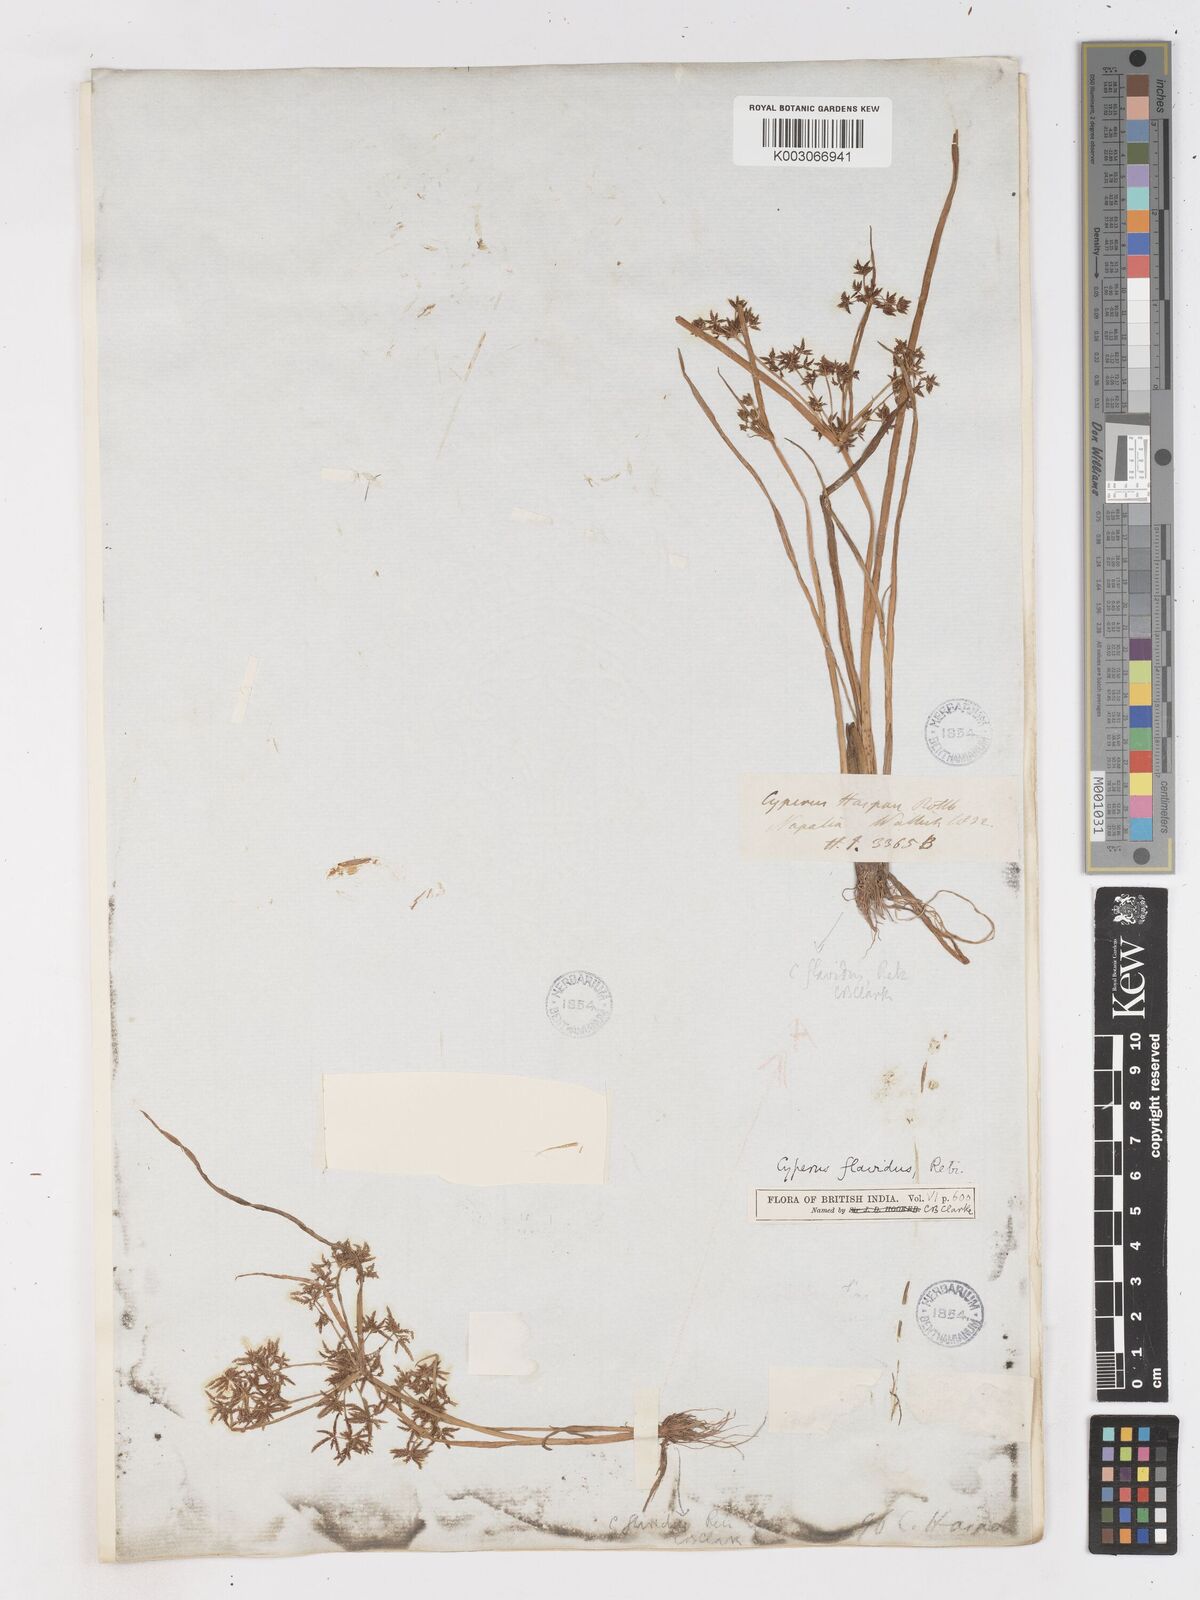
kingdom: Plantae
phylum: Tracheophyta
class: Liliopsida
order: Poales
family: Cyperaceae
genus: Cyperus
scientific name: Cyperus tenuispica
